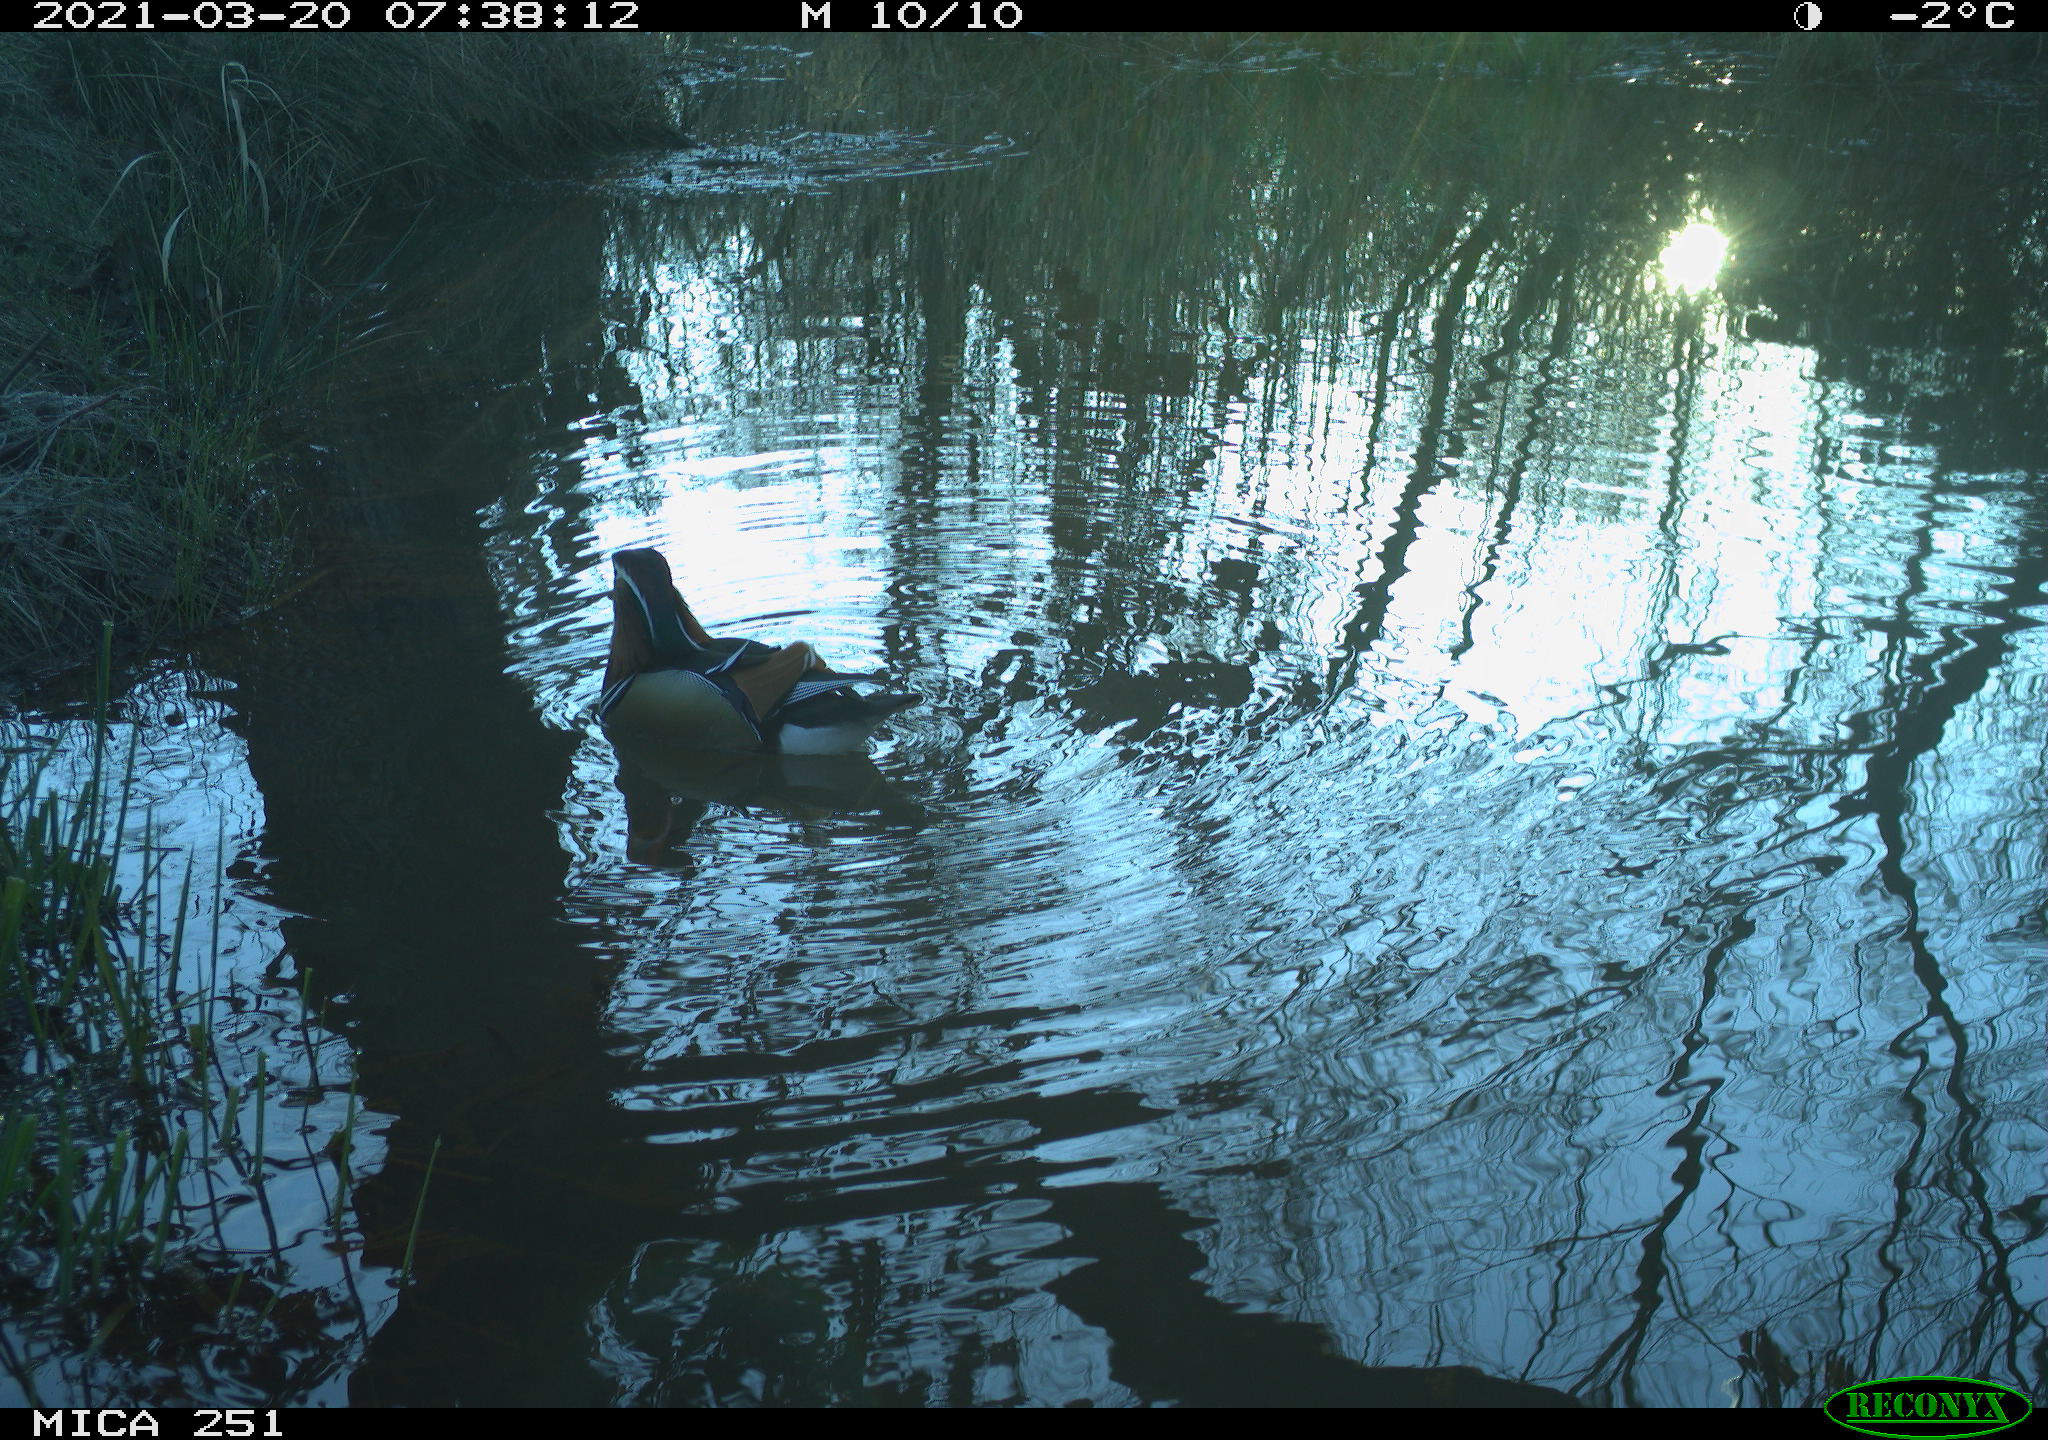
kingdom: Animalia
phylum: Chordata
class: Aves
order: Anseriformes
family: Anatidae
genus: Aix
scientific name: Aix galericulata
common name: Mandarin duck
